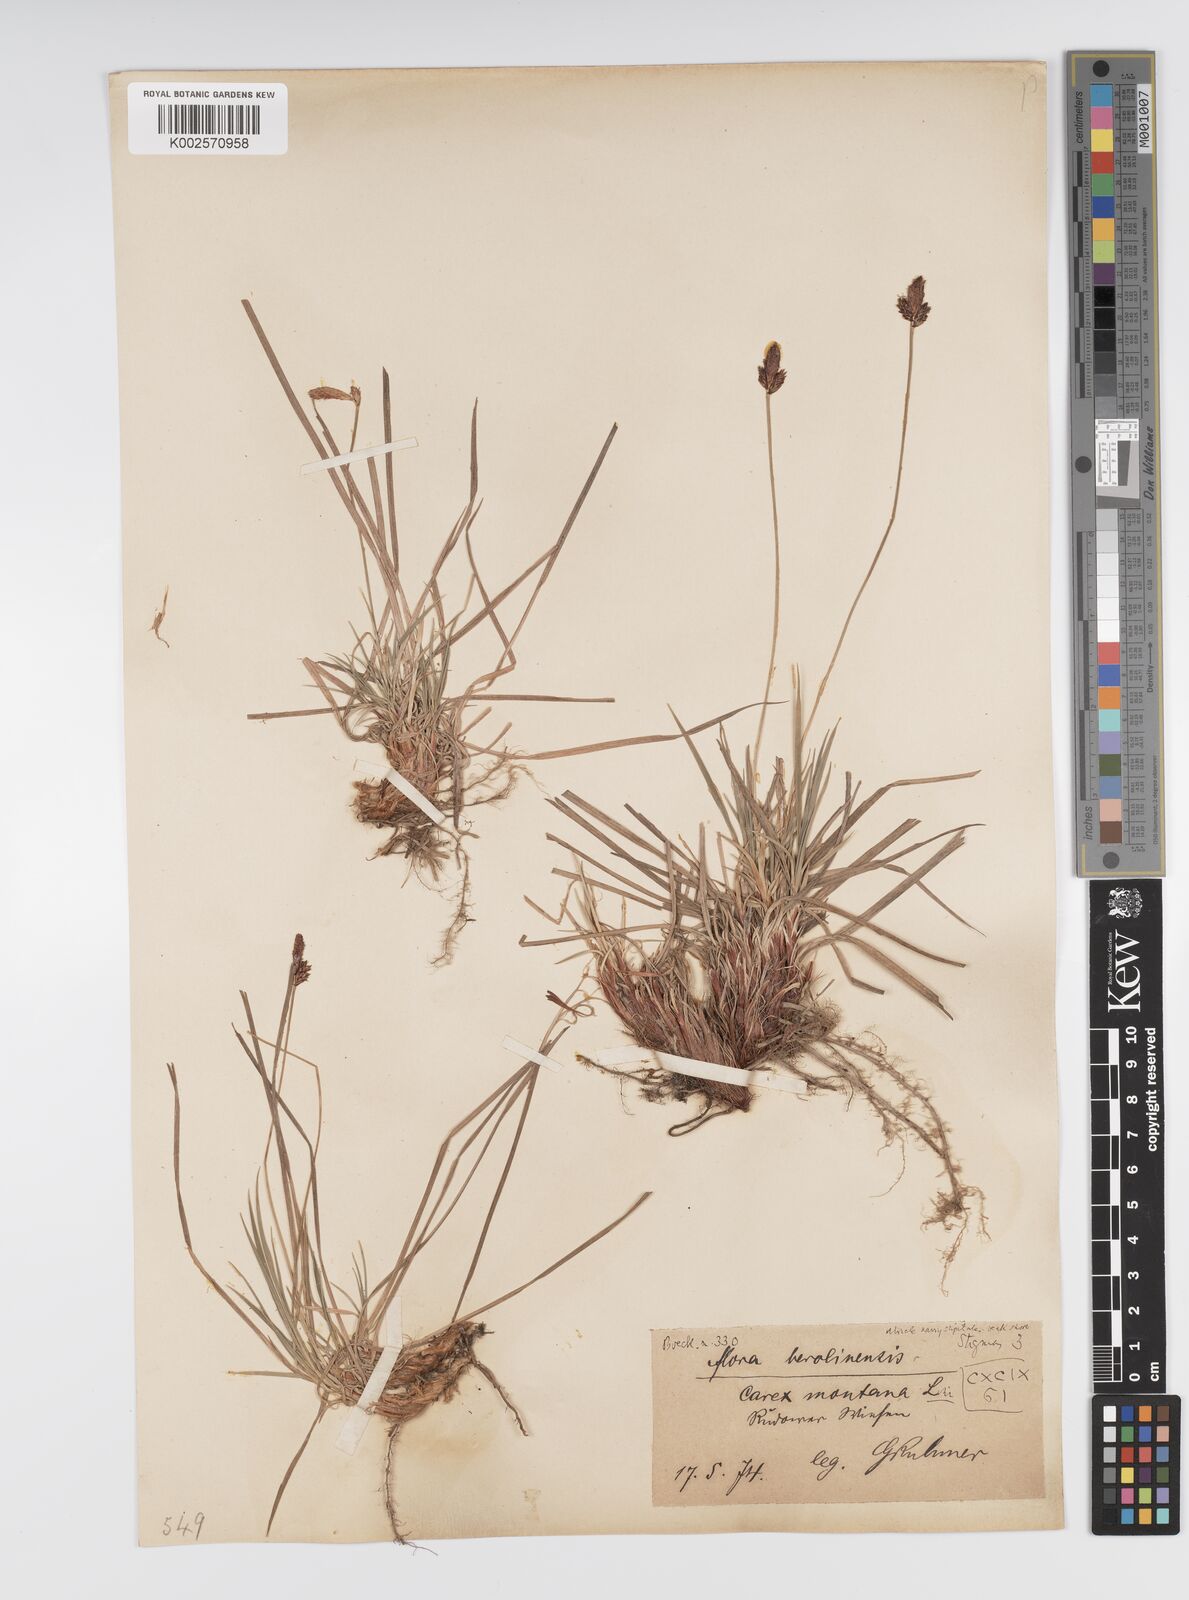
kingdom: Plantae
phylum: Tracheophyta
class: Liliopsida
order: Poales
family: Cyperaceae
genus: Carex
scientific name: Carex montana
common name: Soft-leaved sedge
